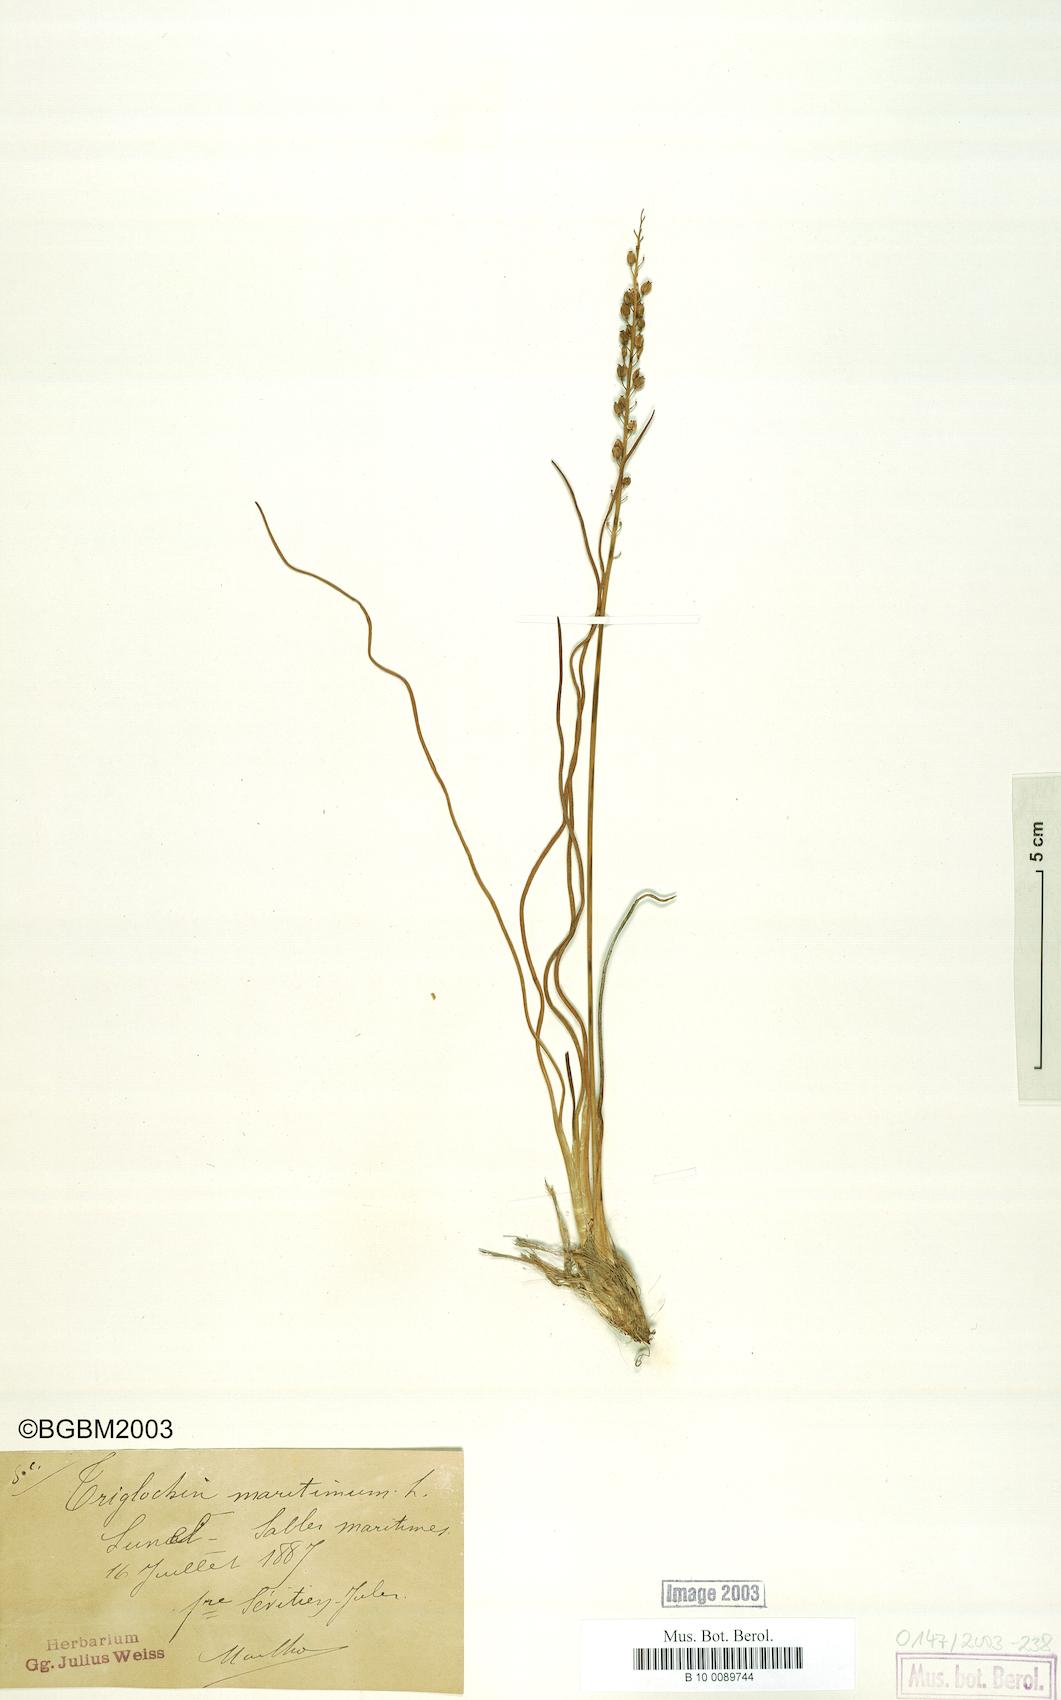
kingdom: Plantae
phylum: Tracheophyta
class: Liliopsida
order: Alismatales
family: Juncaginaceae
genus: Triglochin
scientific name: Triglochin maritima
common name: Sea arrowgrass
